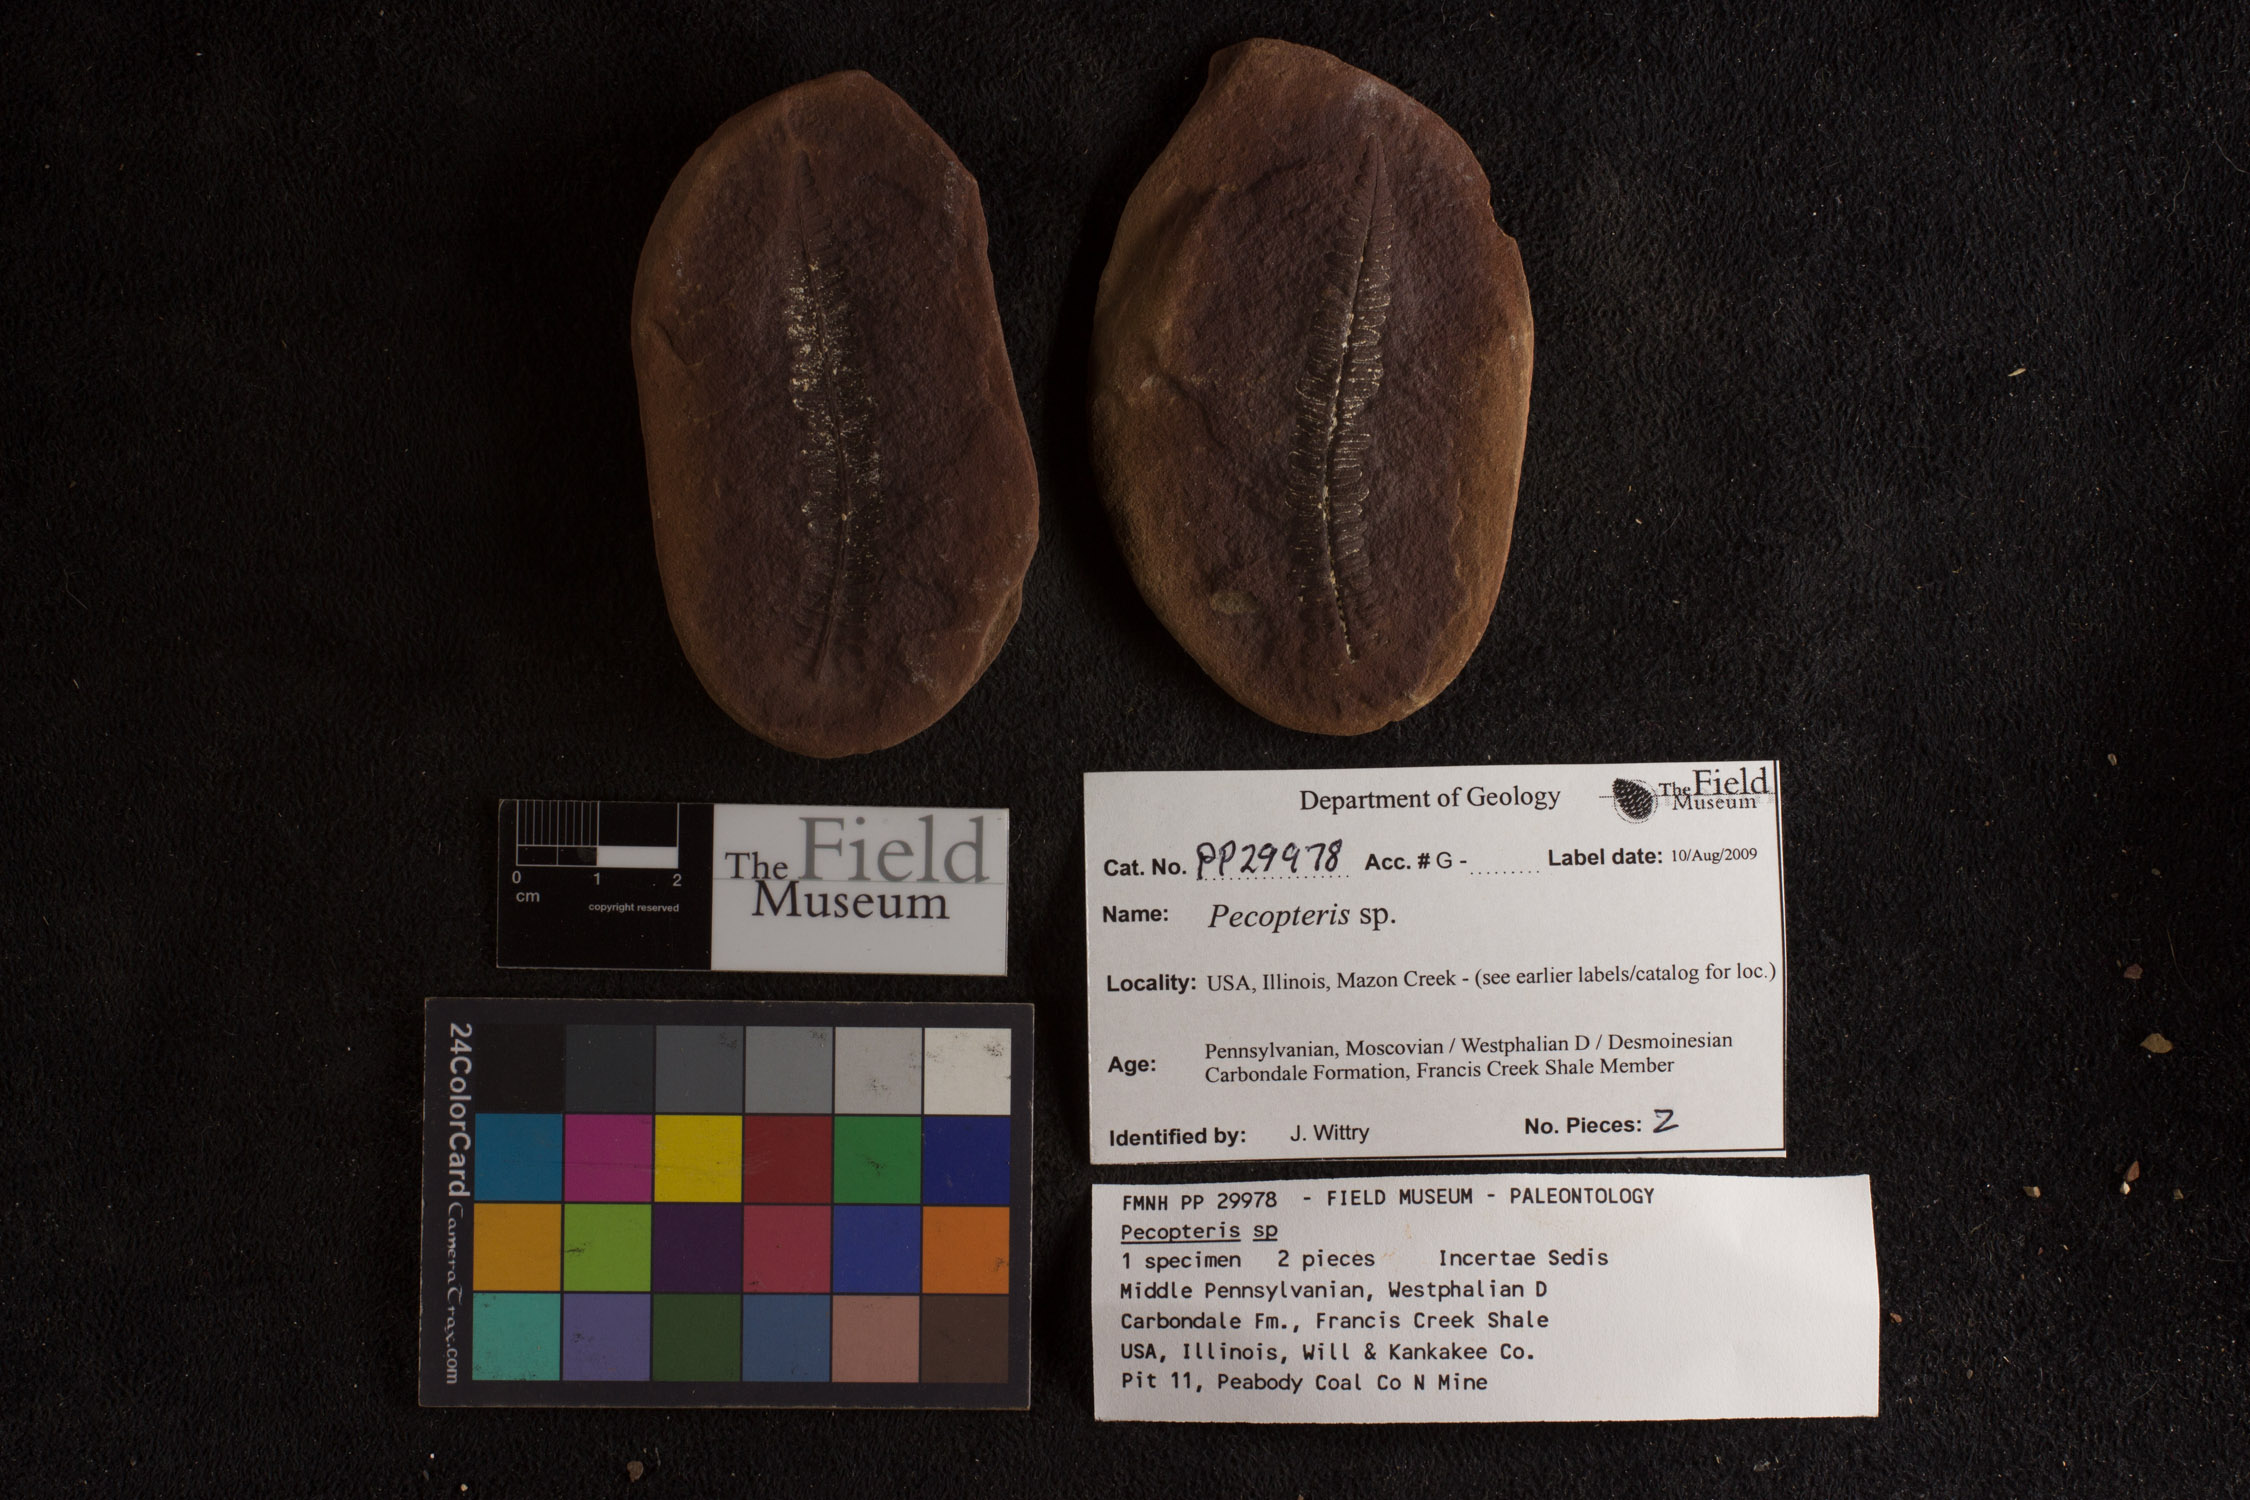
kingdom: Plantae
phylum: Tracheophyta
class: Polypodiopsida
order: Marattiales
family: Asterothecaceae
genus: Pecopteris
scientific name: Pecopteris
